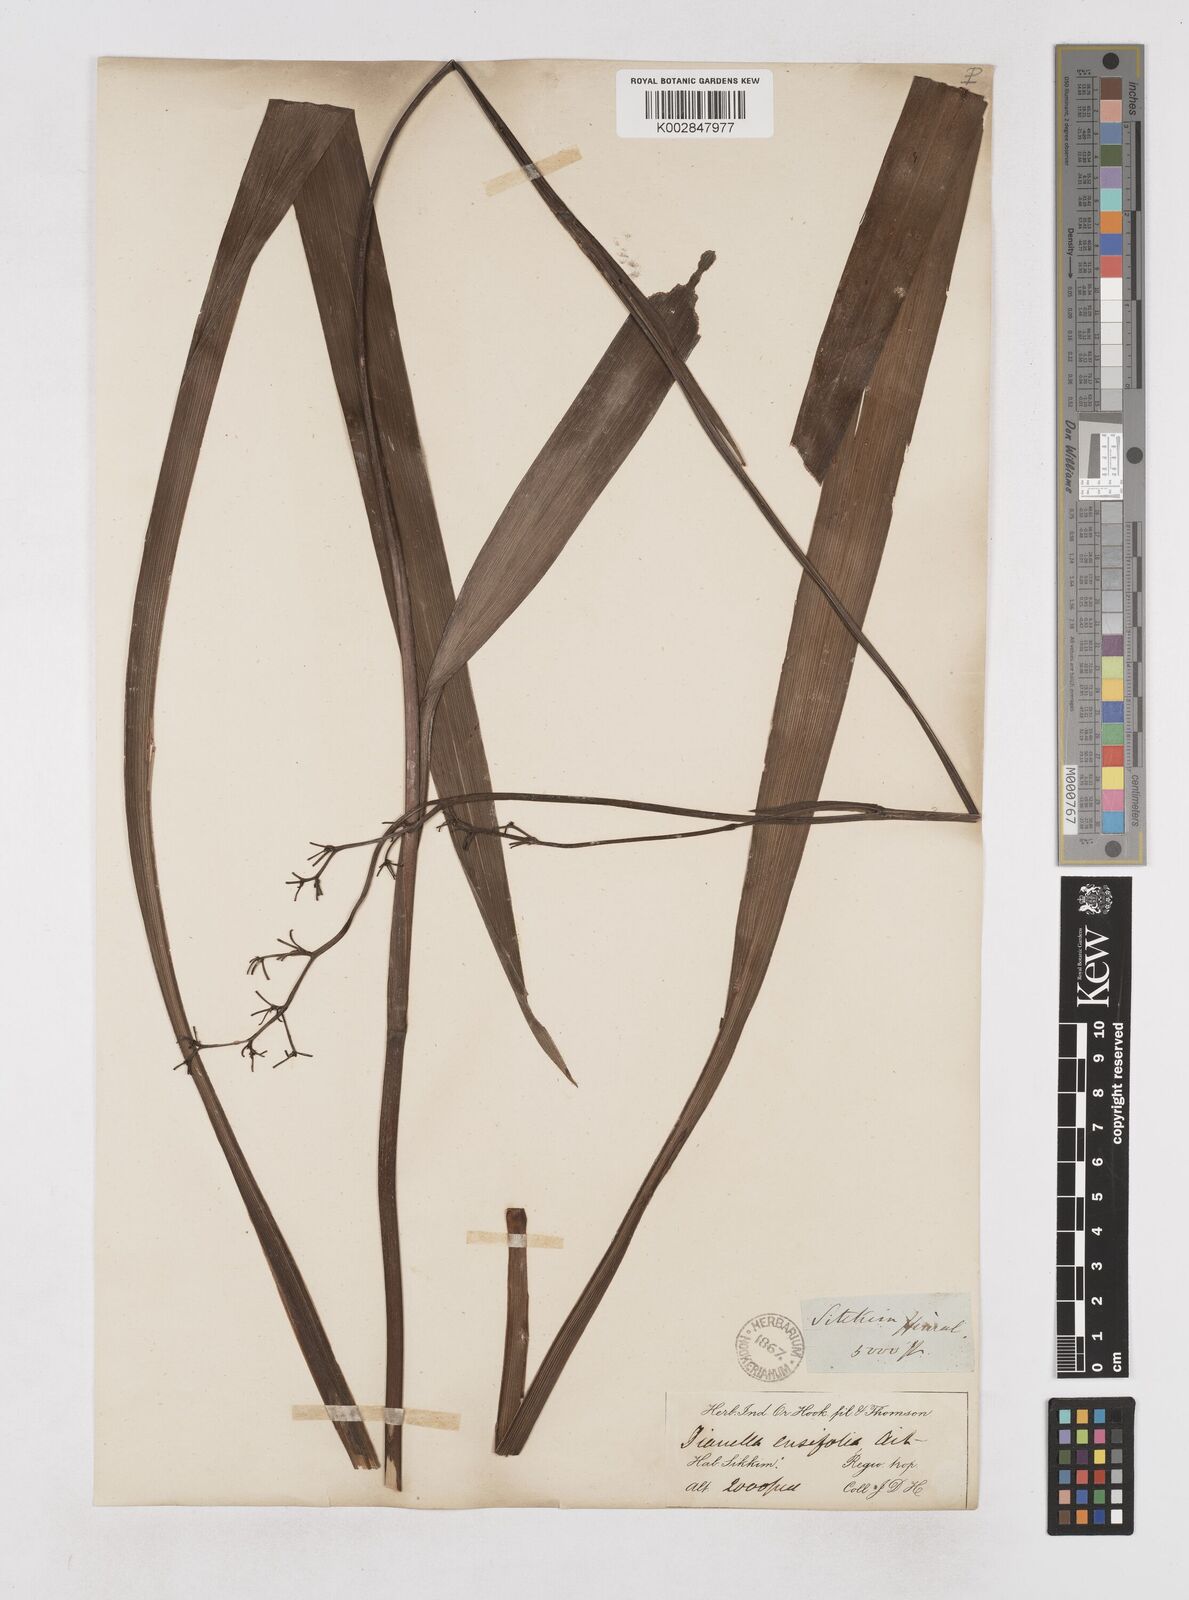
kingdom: Plantae
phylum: Tracheophyta
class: Liliopsida
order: Asparagales
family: Asphodelaceae
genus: Dianella
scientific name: Dianella ensifolia
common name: New zealand lilyplant
